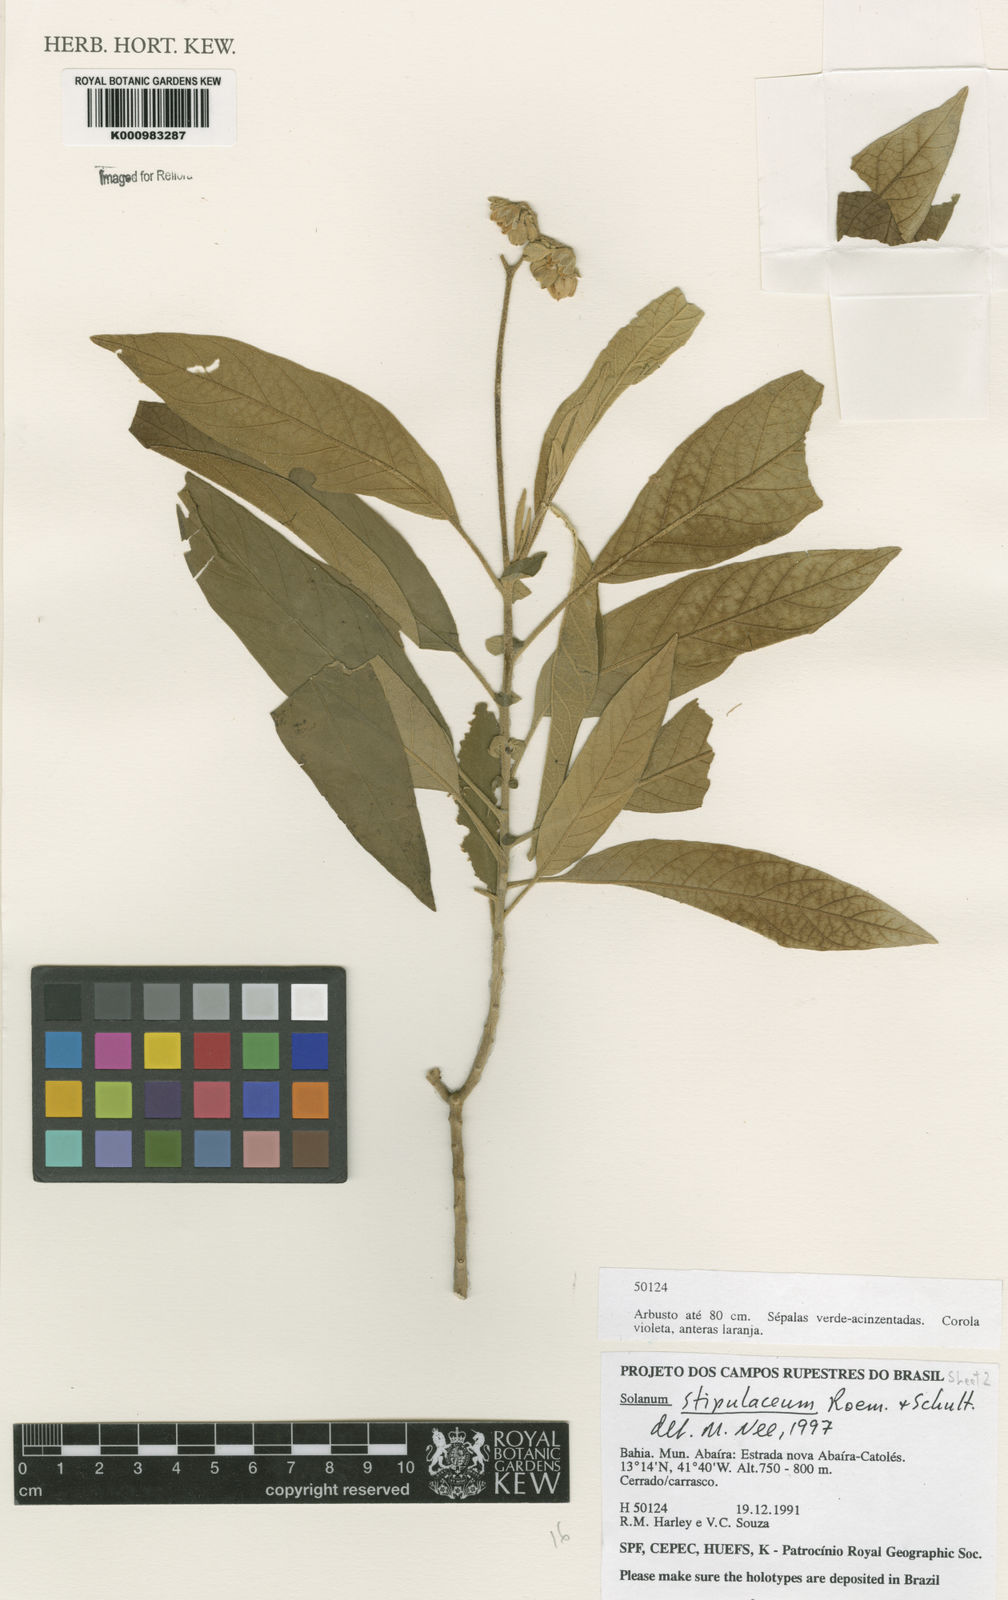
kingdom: Plantae
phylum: Tracheophyta
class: Magnoliopsida
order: Solanales
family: Solanaceae
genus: Solanum
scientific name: Solanum stipulaceum
